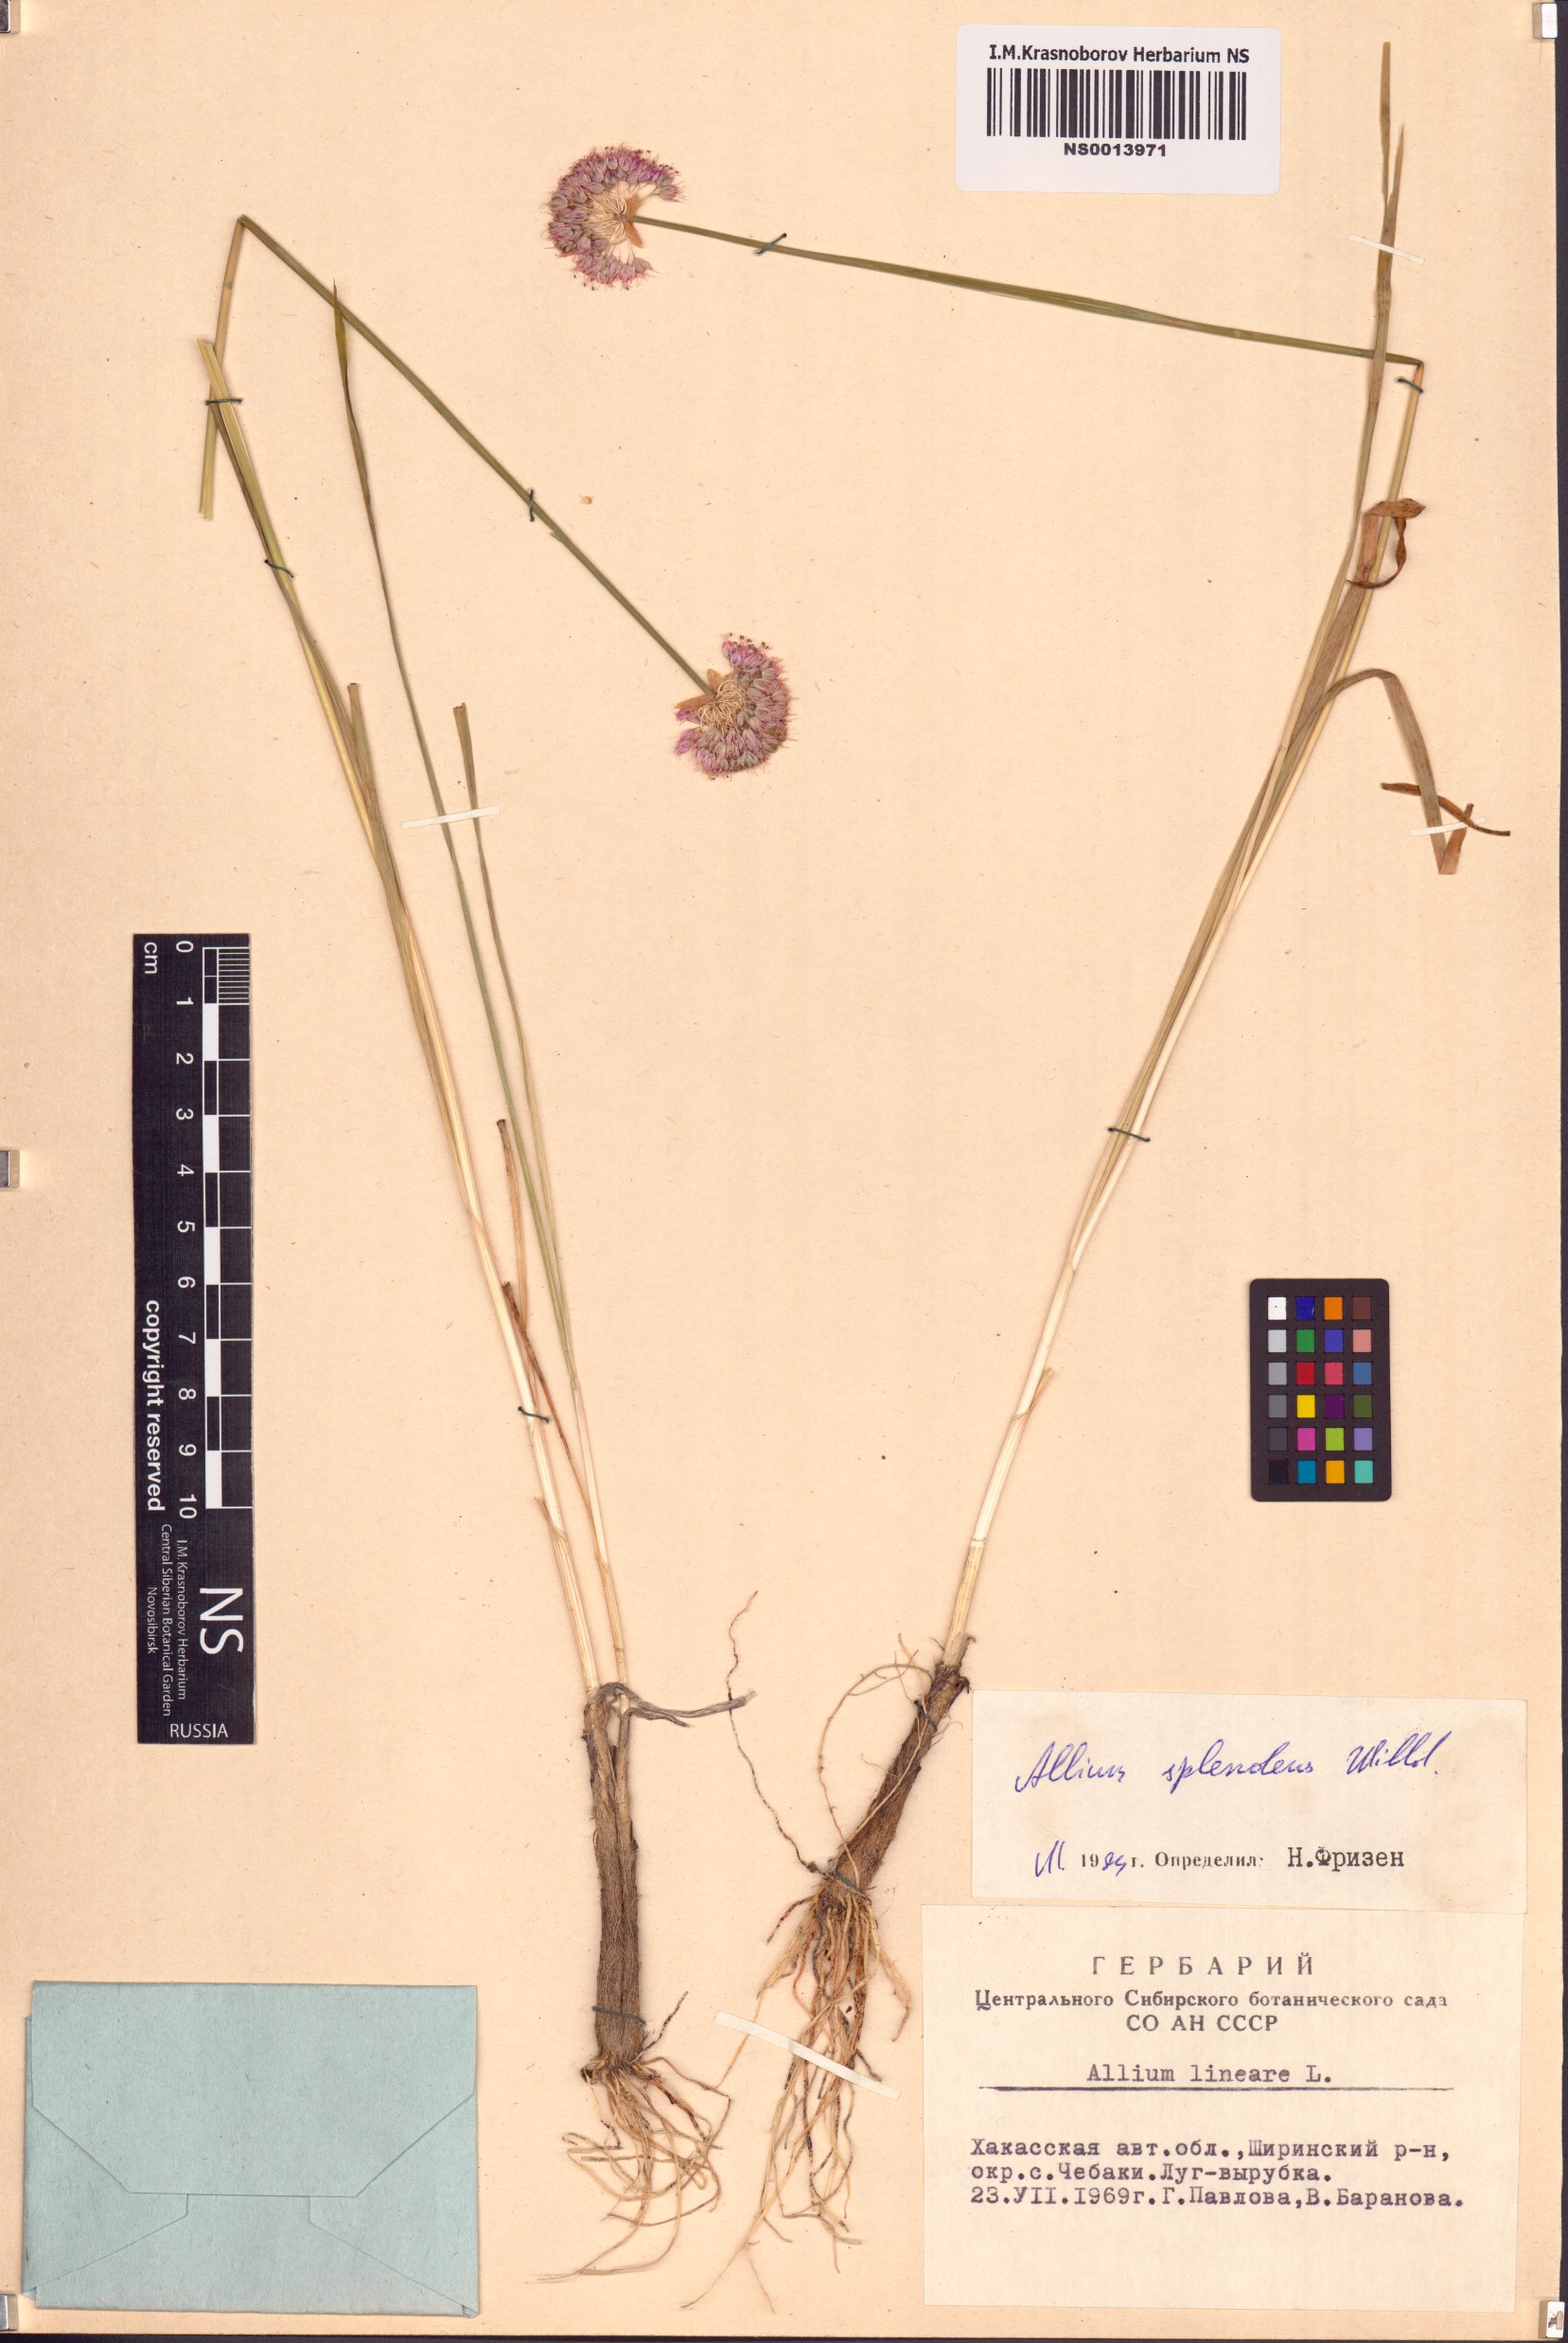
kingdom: Plantae
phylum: Tracheophyta
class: Liliopsida
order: Asparagales
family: Amaryllidaceae
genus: Allium
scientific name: Allium splendens
